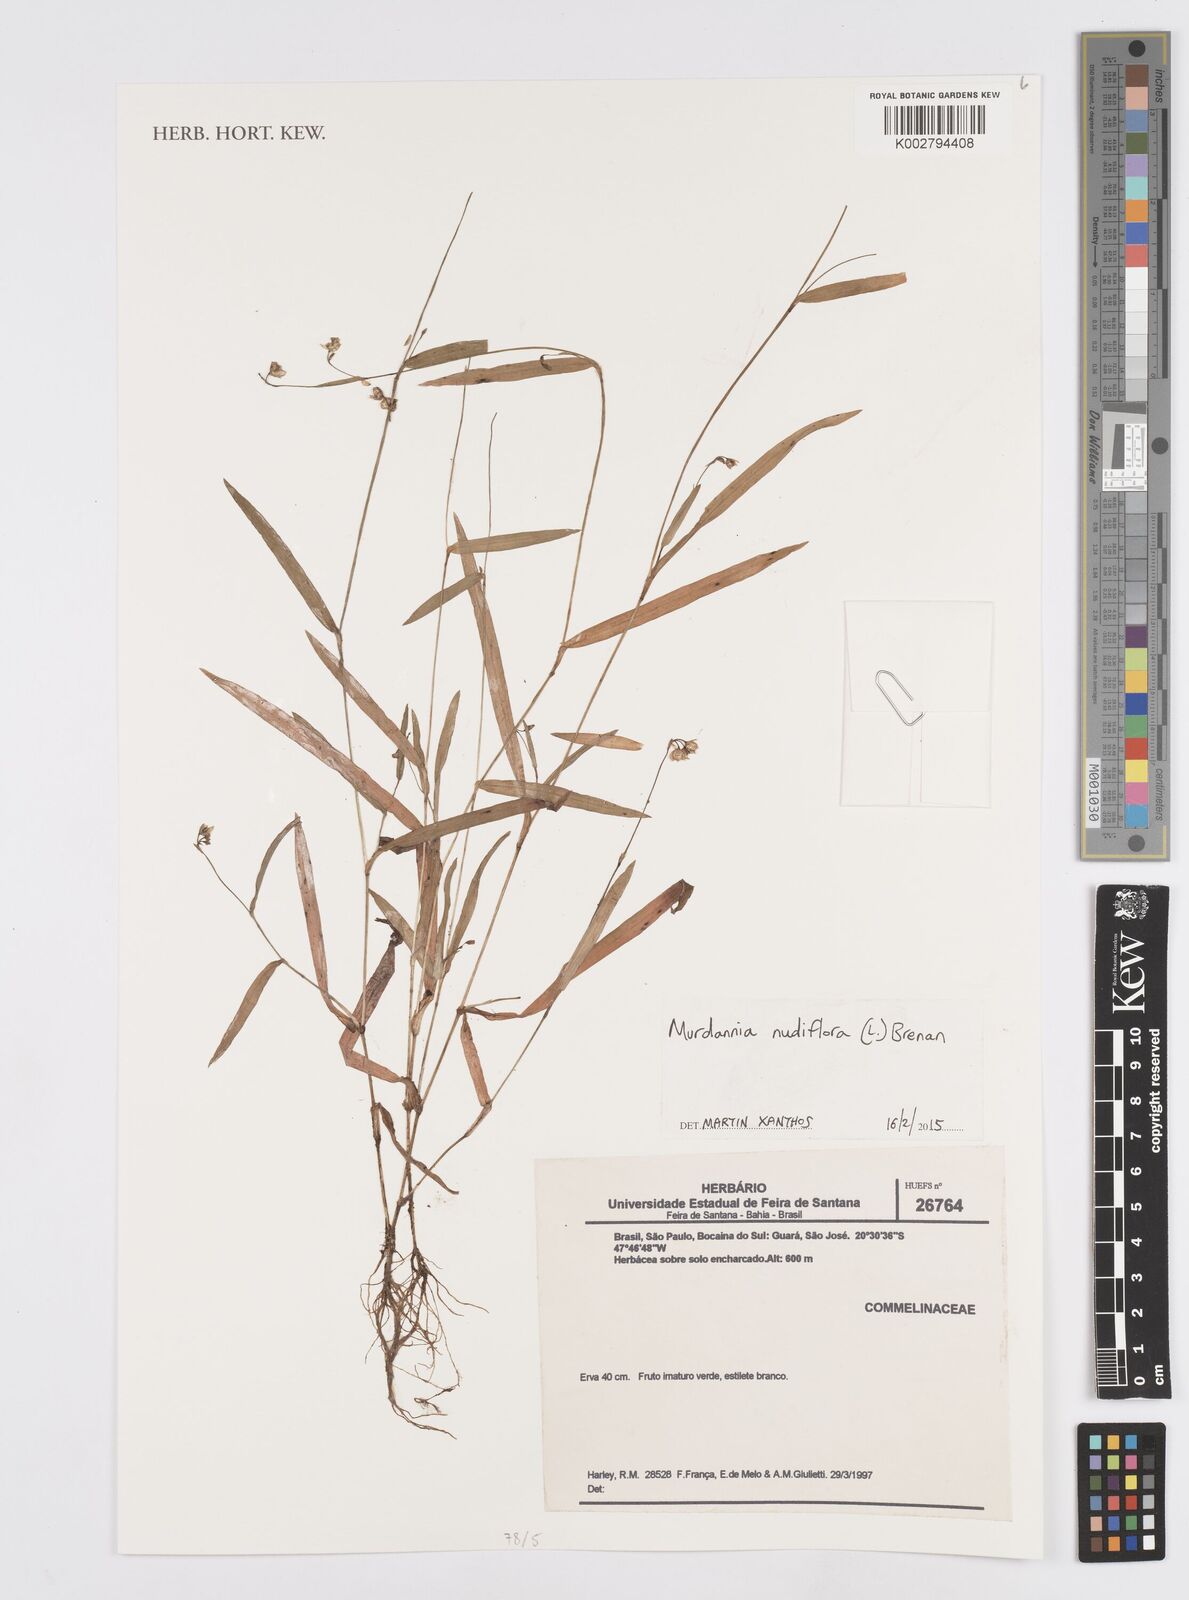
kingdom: Plantae
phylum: Tracheophyta
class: Liliopsida
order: Commelinales
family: Commelinaceae
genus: Murdannia
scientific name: Murdannia nudiflora
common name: Nakedstem dewflower
